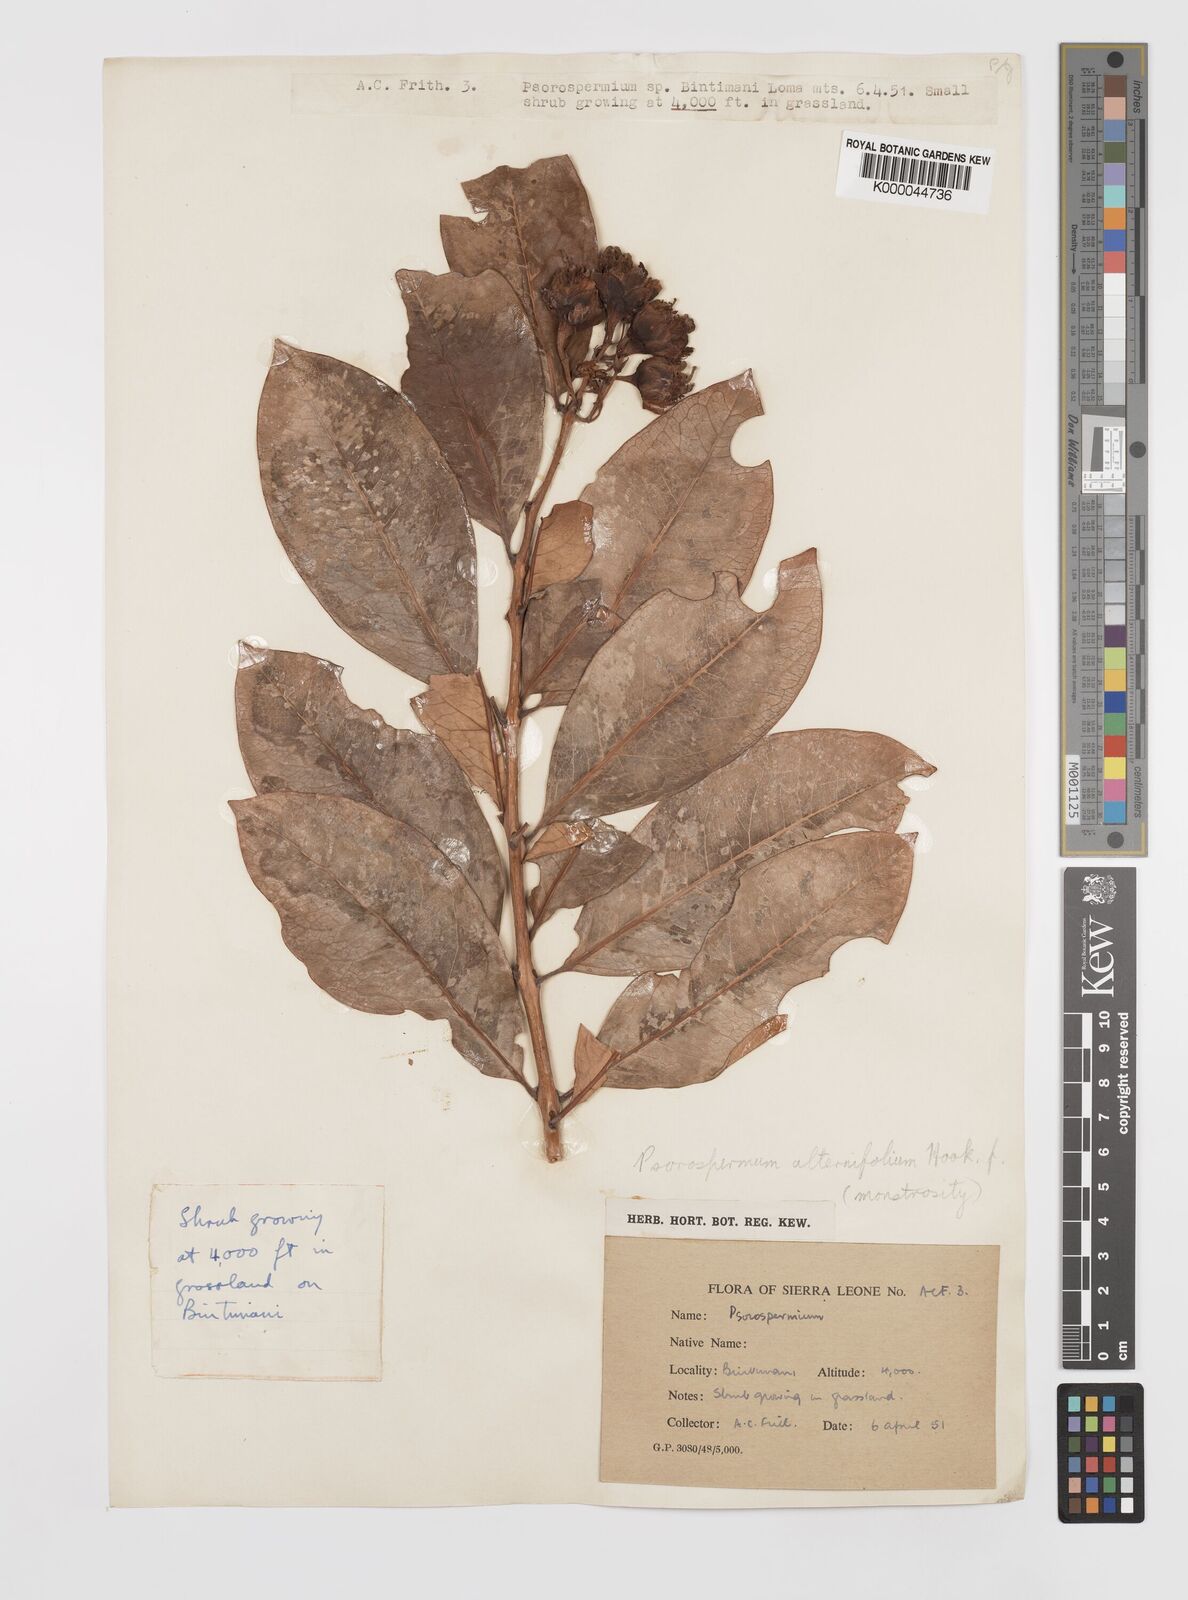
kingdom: Plantae
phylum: Tracheophyta
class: Magnoliopsida
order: Malpighiales
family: Hypericaceae
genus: Psorospermum
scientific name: Psorospermum alternifolium
